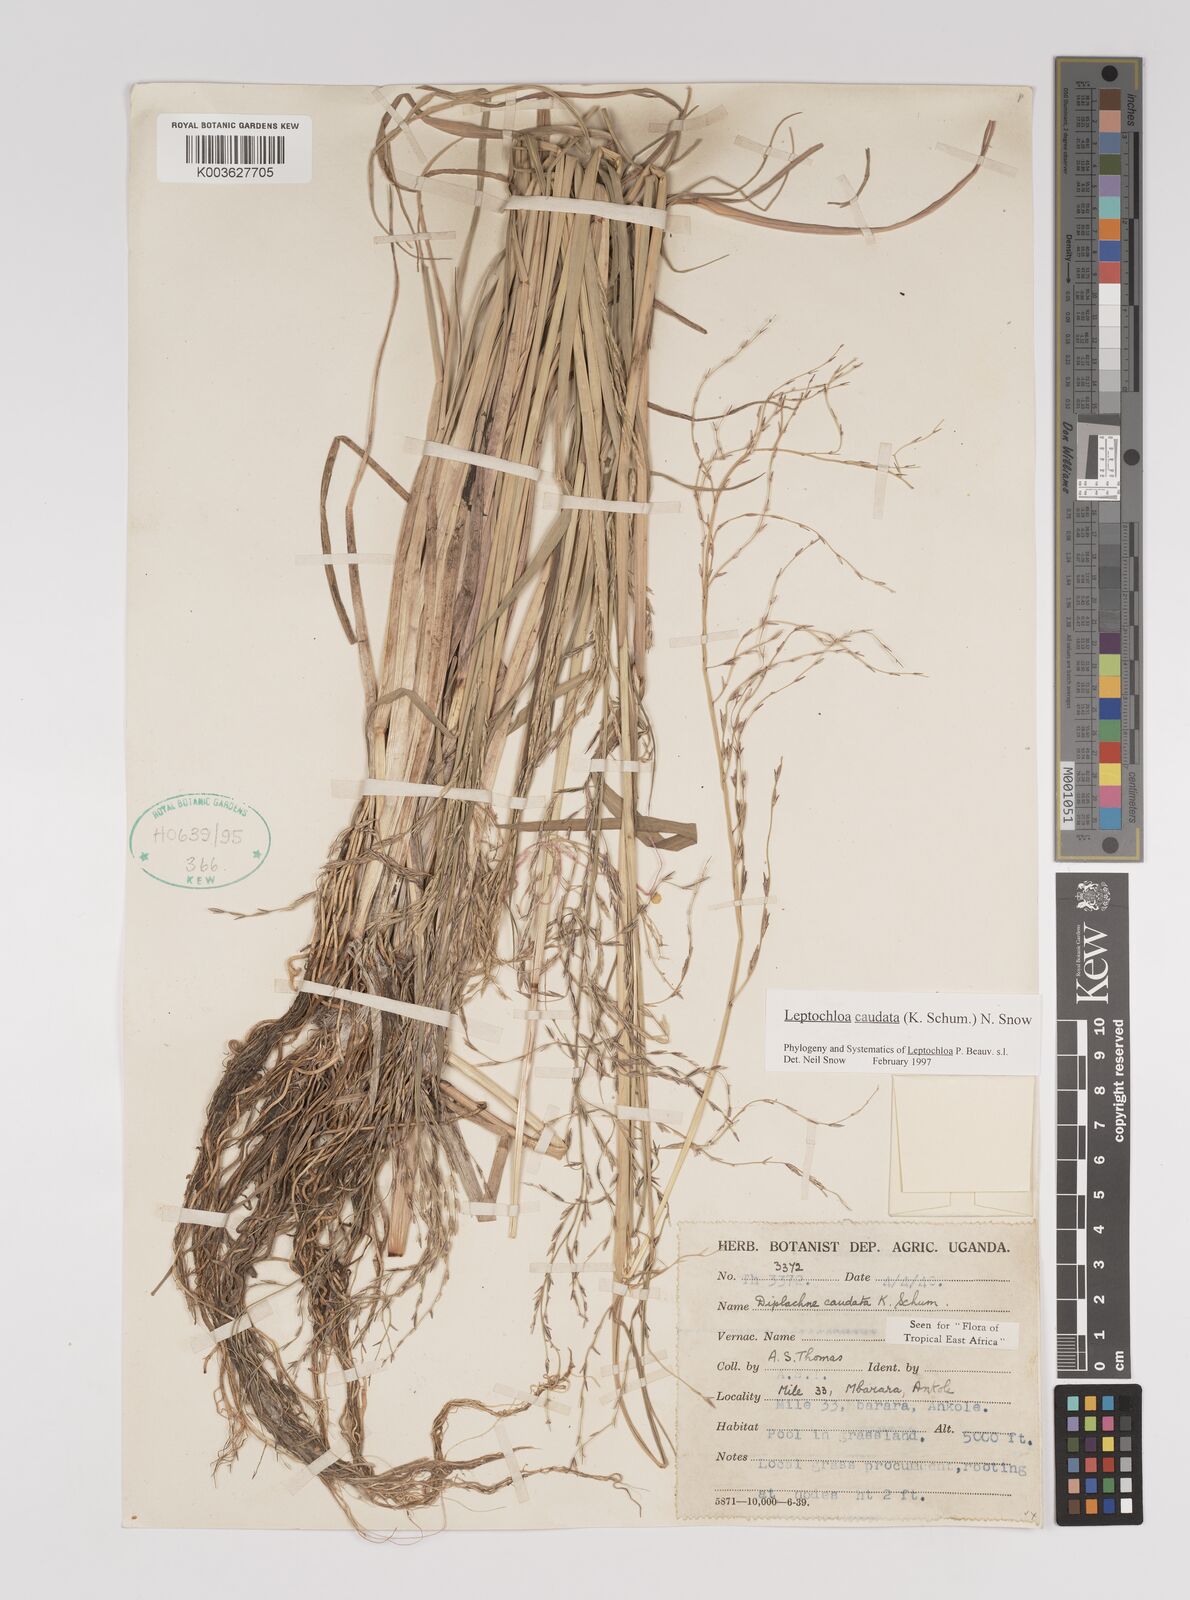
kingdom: Plantae
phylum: Tracheophyta
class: Liliopsida
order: Poales
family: Poaceae
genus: Leptochloa
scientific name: Leptochloa caudata
